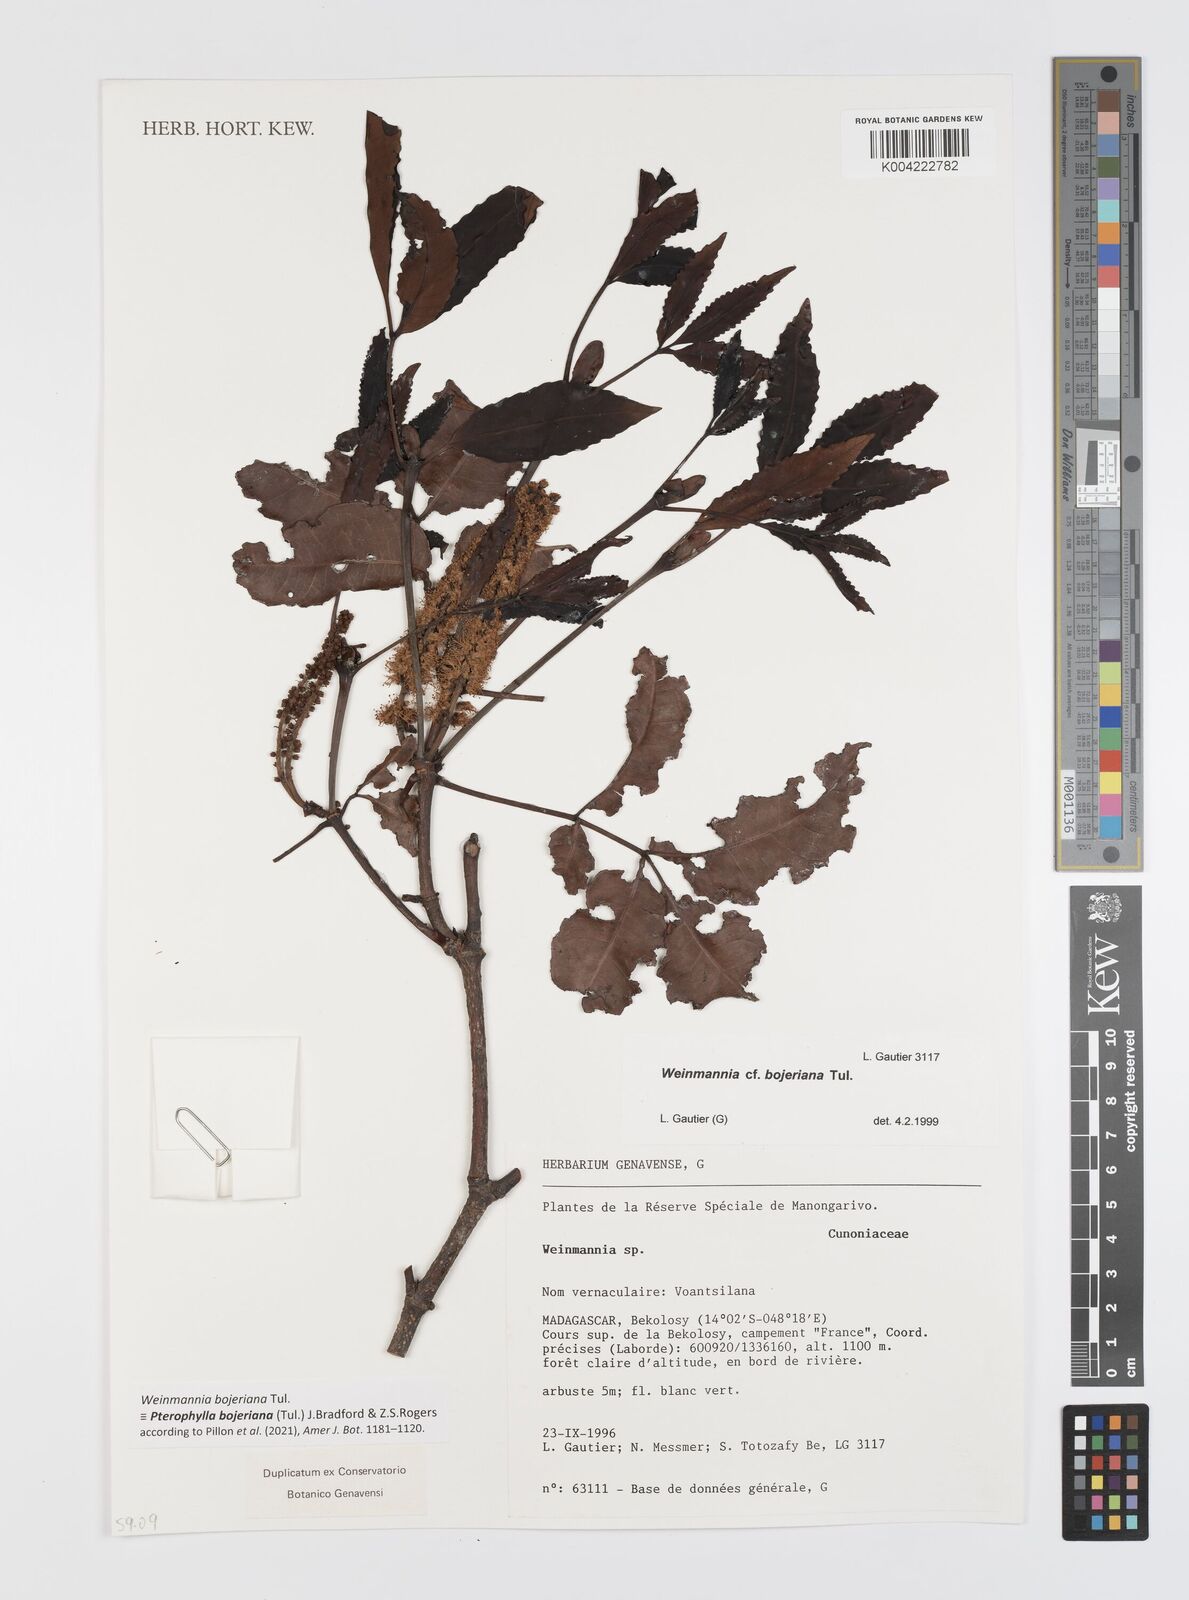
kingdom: Plantae
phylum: Tracheophyta
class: Magnoliopsida
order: Oxalidales
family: Cunoniaceae
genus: Pterophylla
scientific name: Pterophylla
